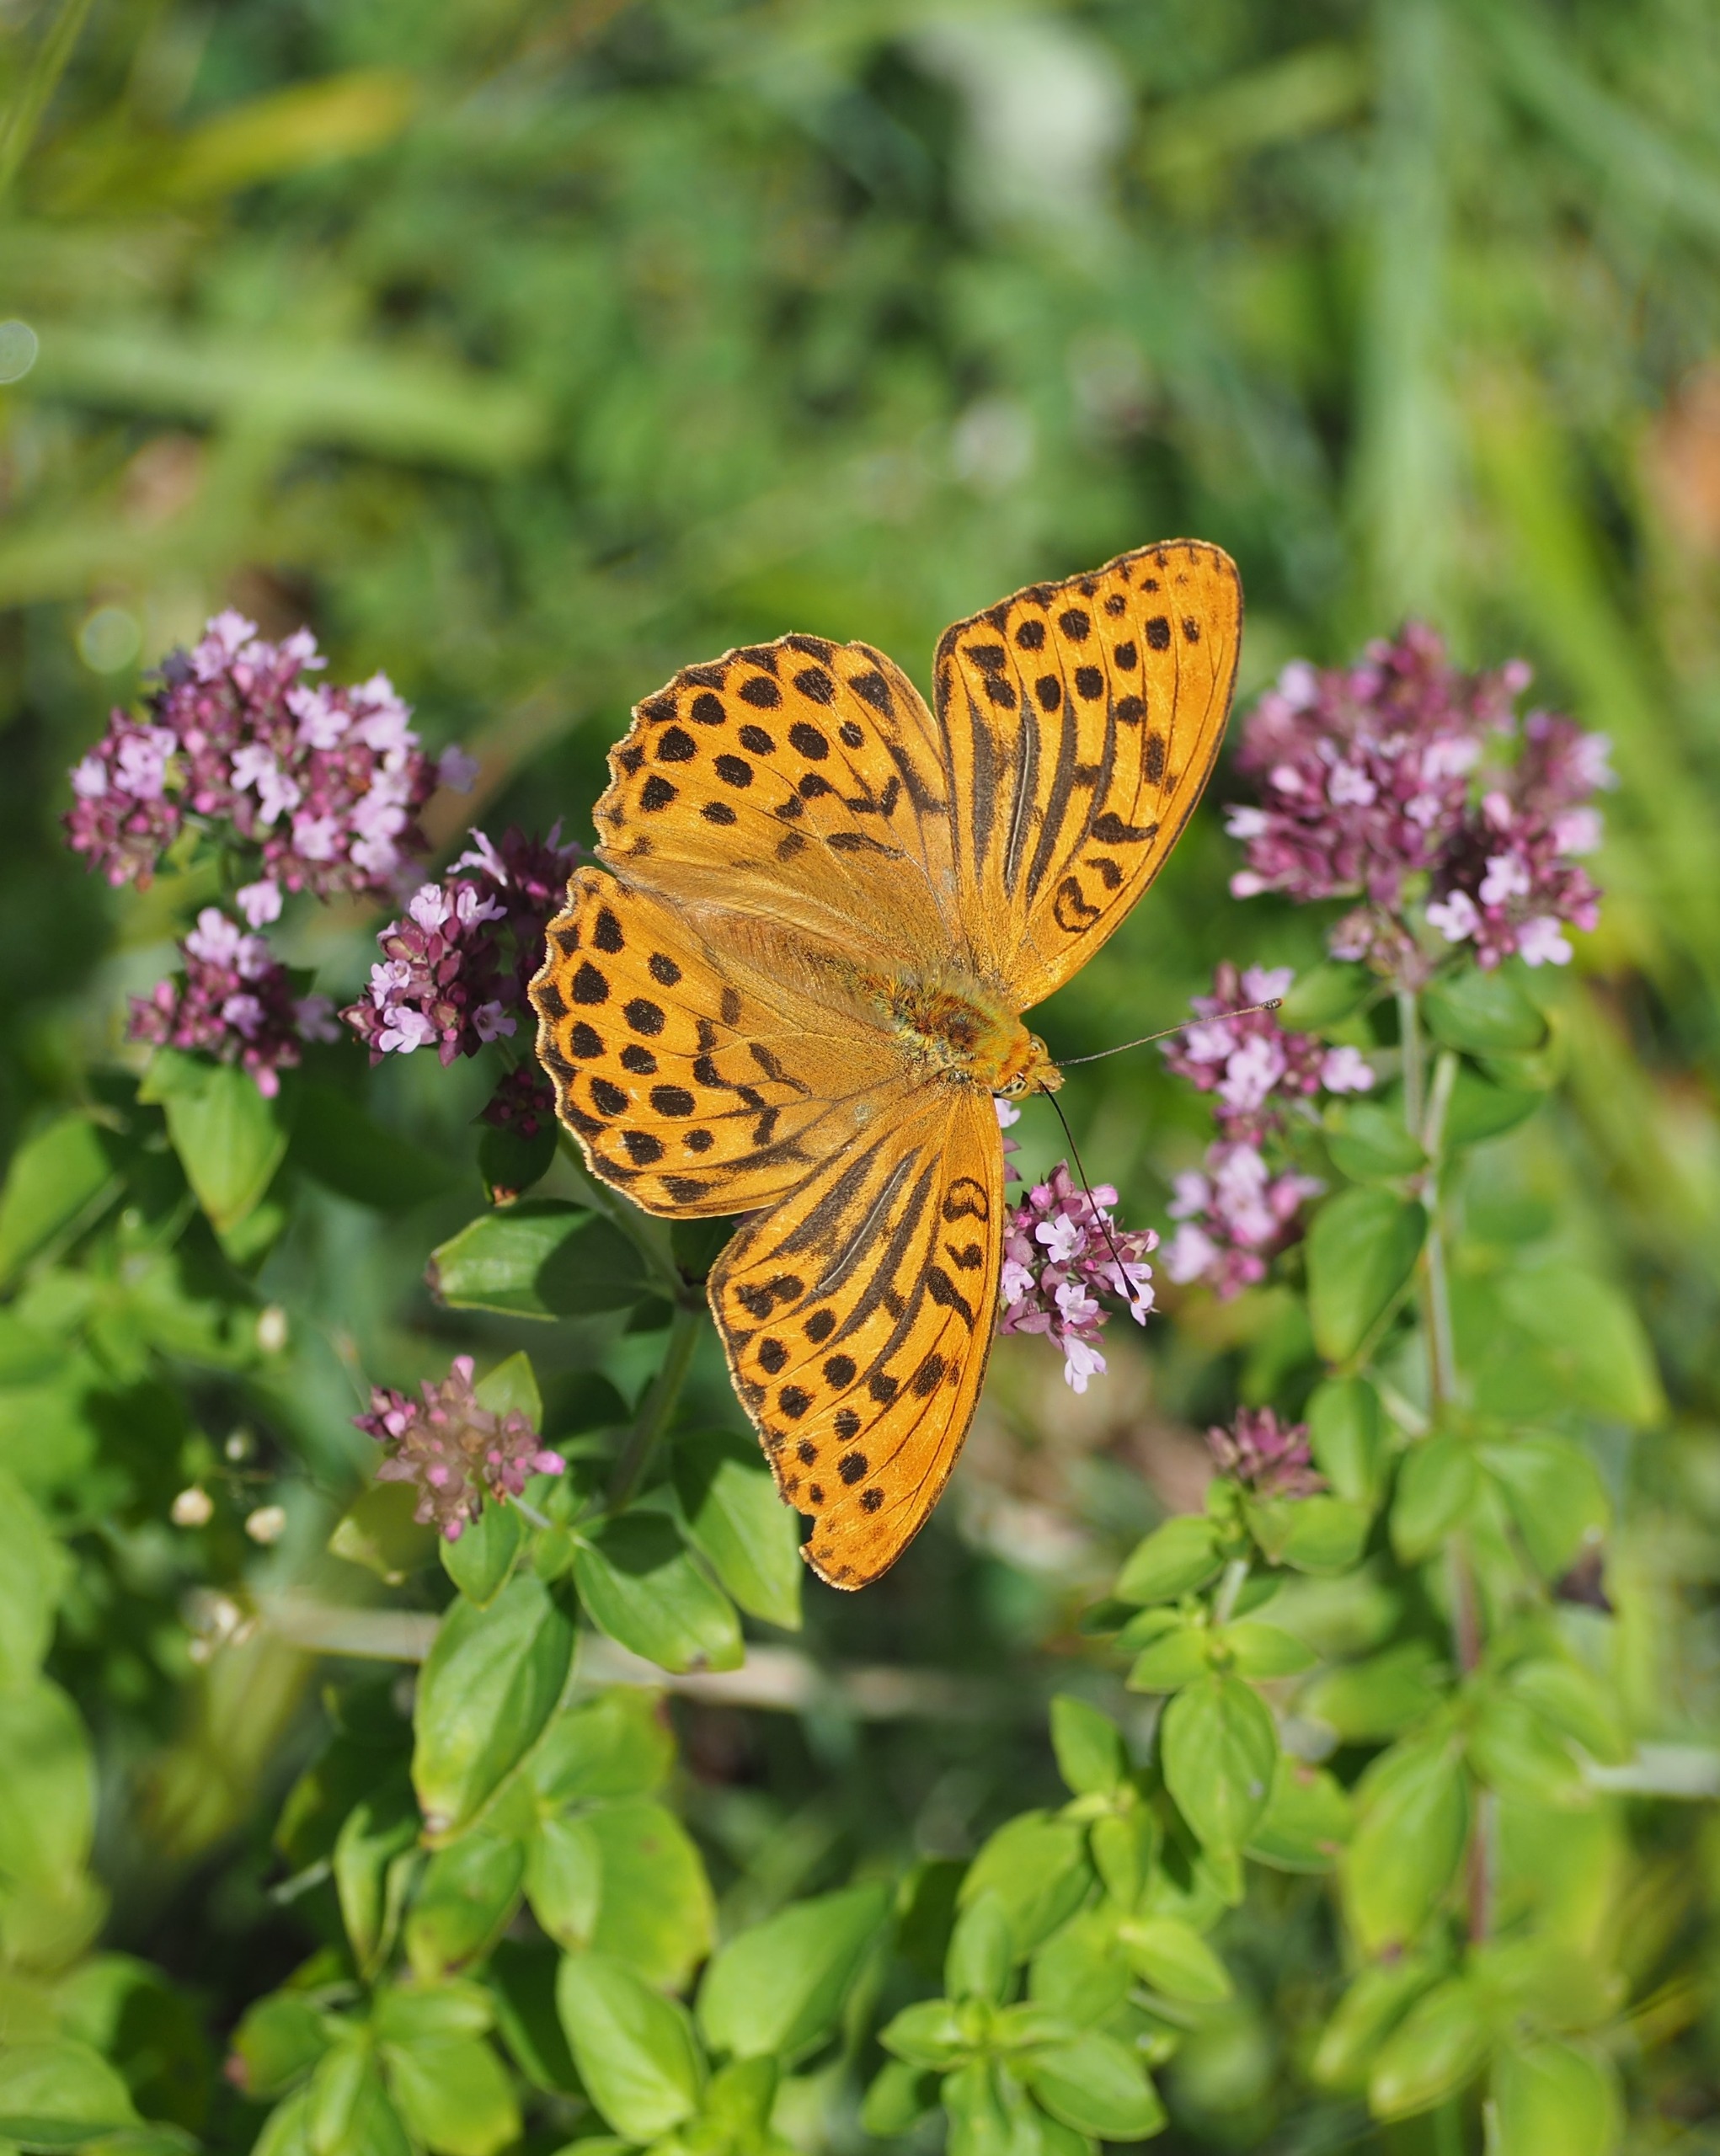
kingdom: Animalia
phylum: Arthropoda
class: Insecta
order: Lepidoptera
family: Nymphalidae
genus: Argynnis
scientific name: Argynnis paphia
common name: Kejserkåbe
